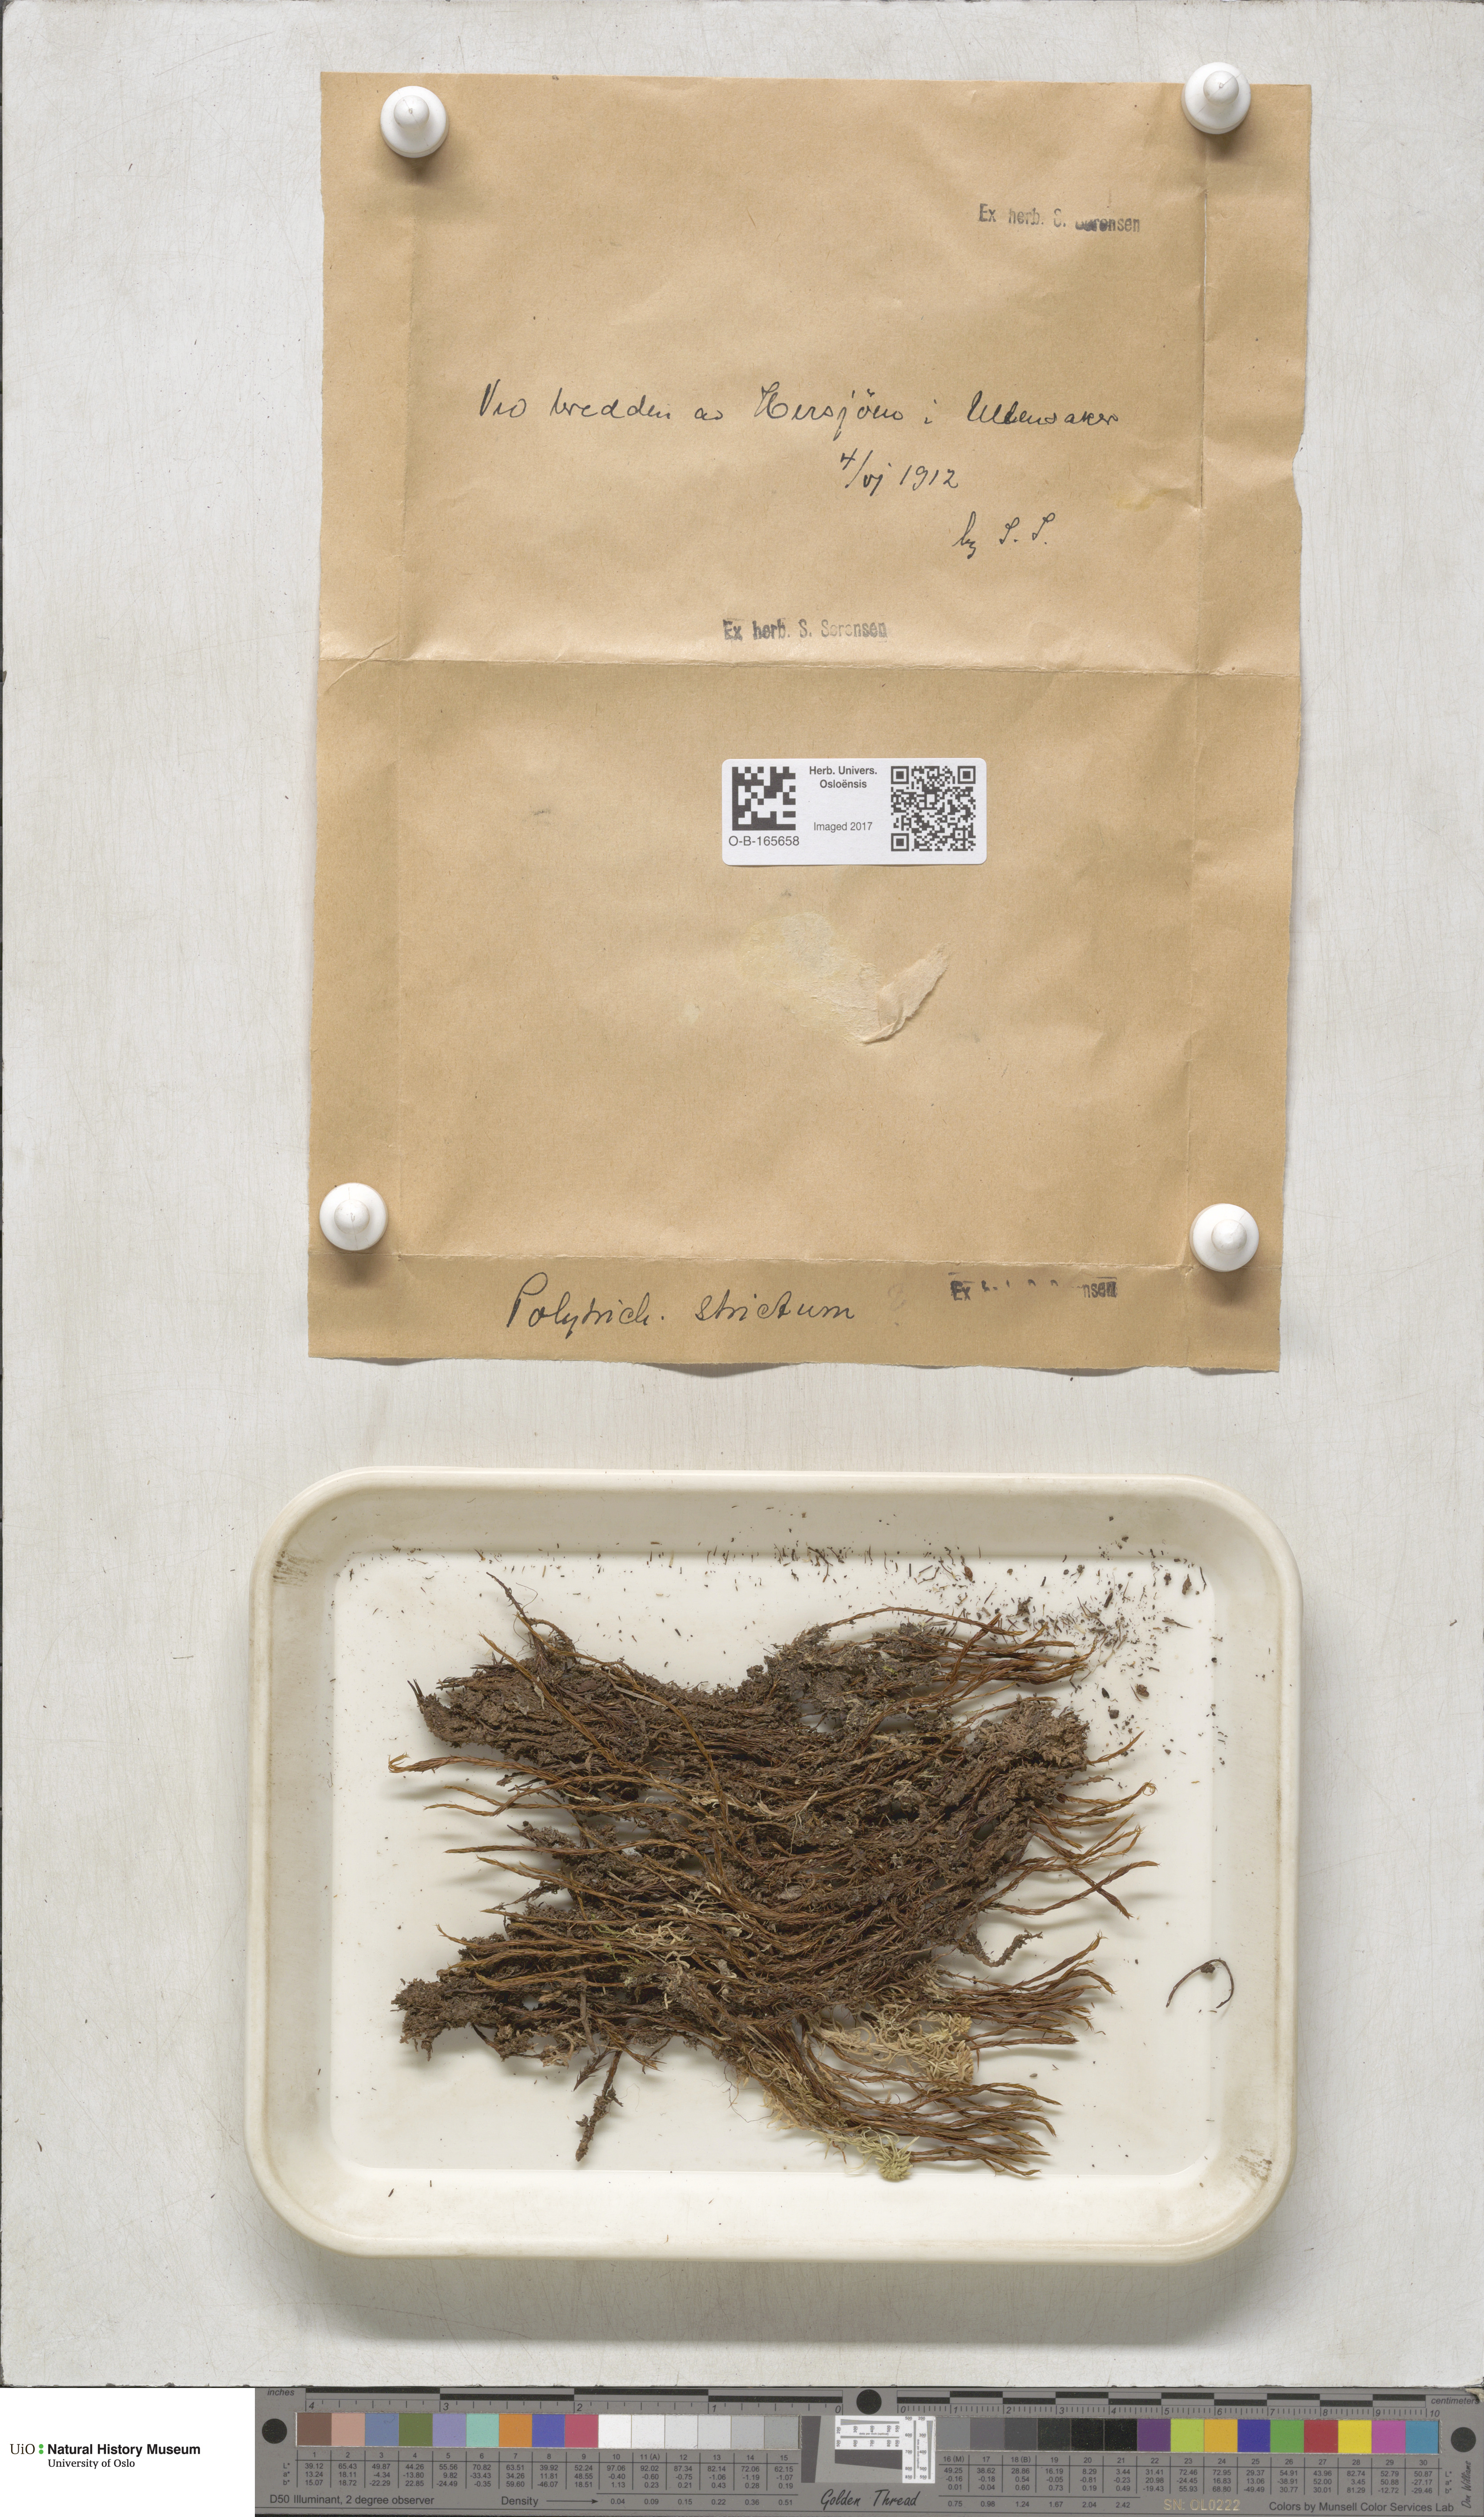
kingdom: Plantae
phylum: Bryophyta
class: Polytrichopsida
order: Polytrichales
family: Polytrichaceae
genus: Polytrichum
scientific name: Polytrichum strictum
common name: Bog haircap moss
